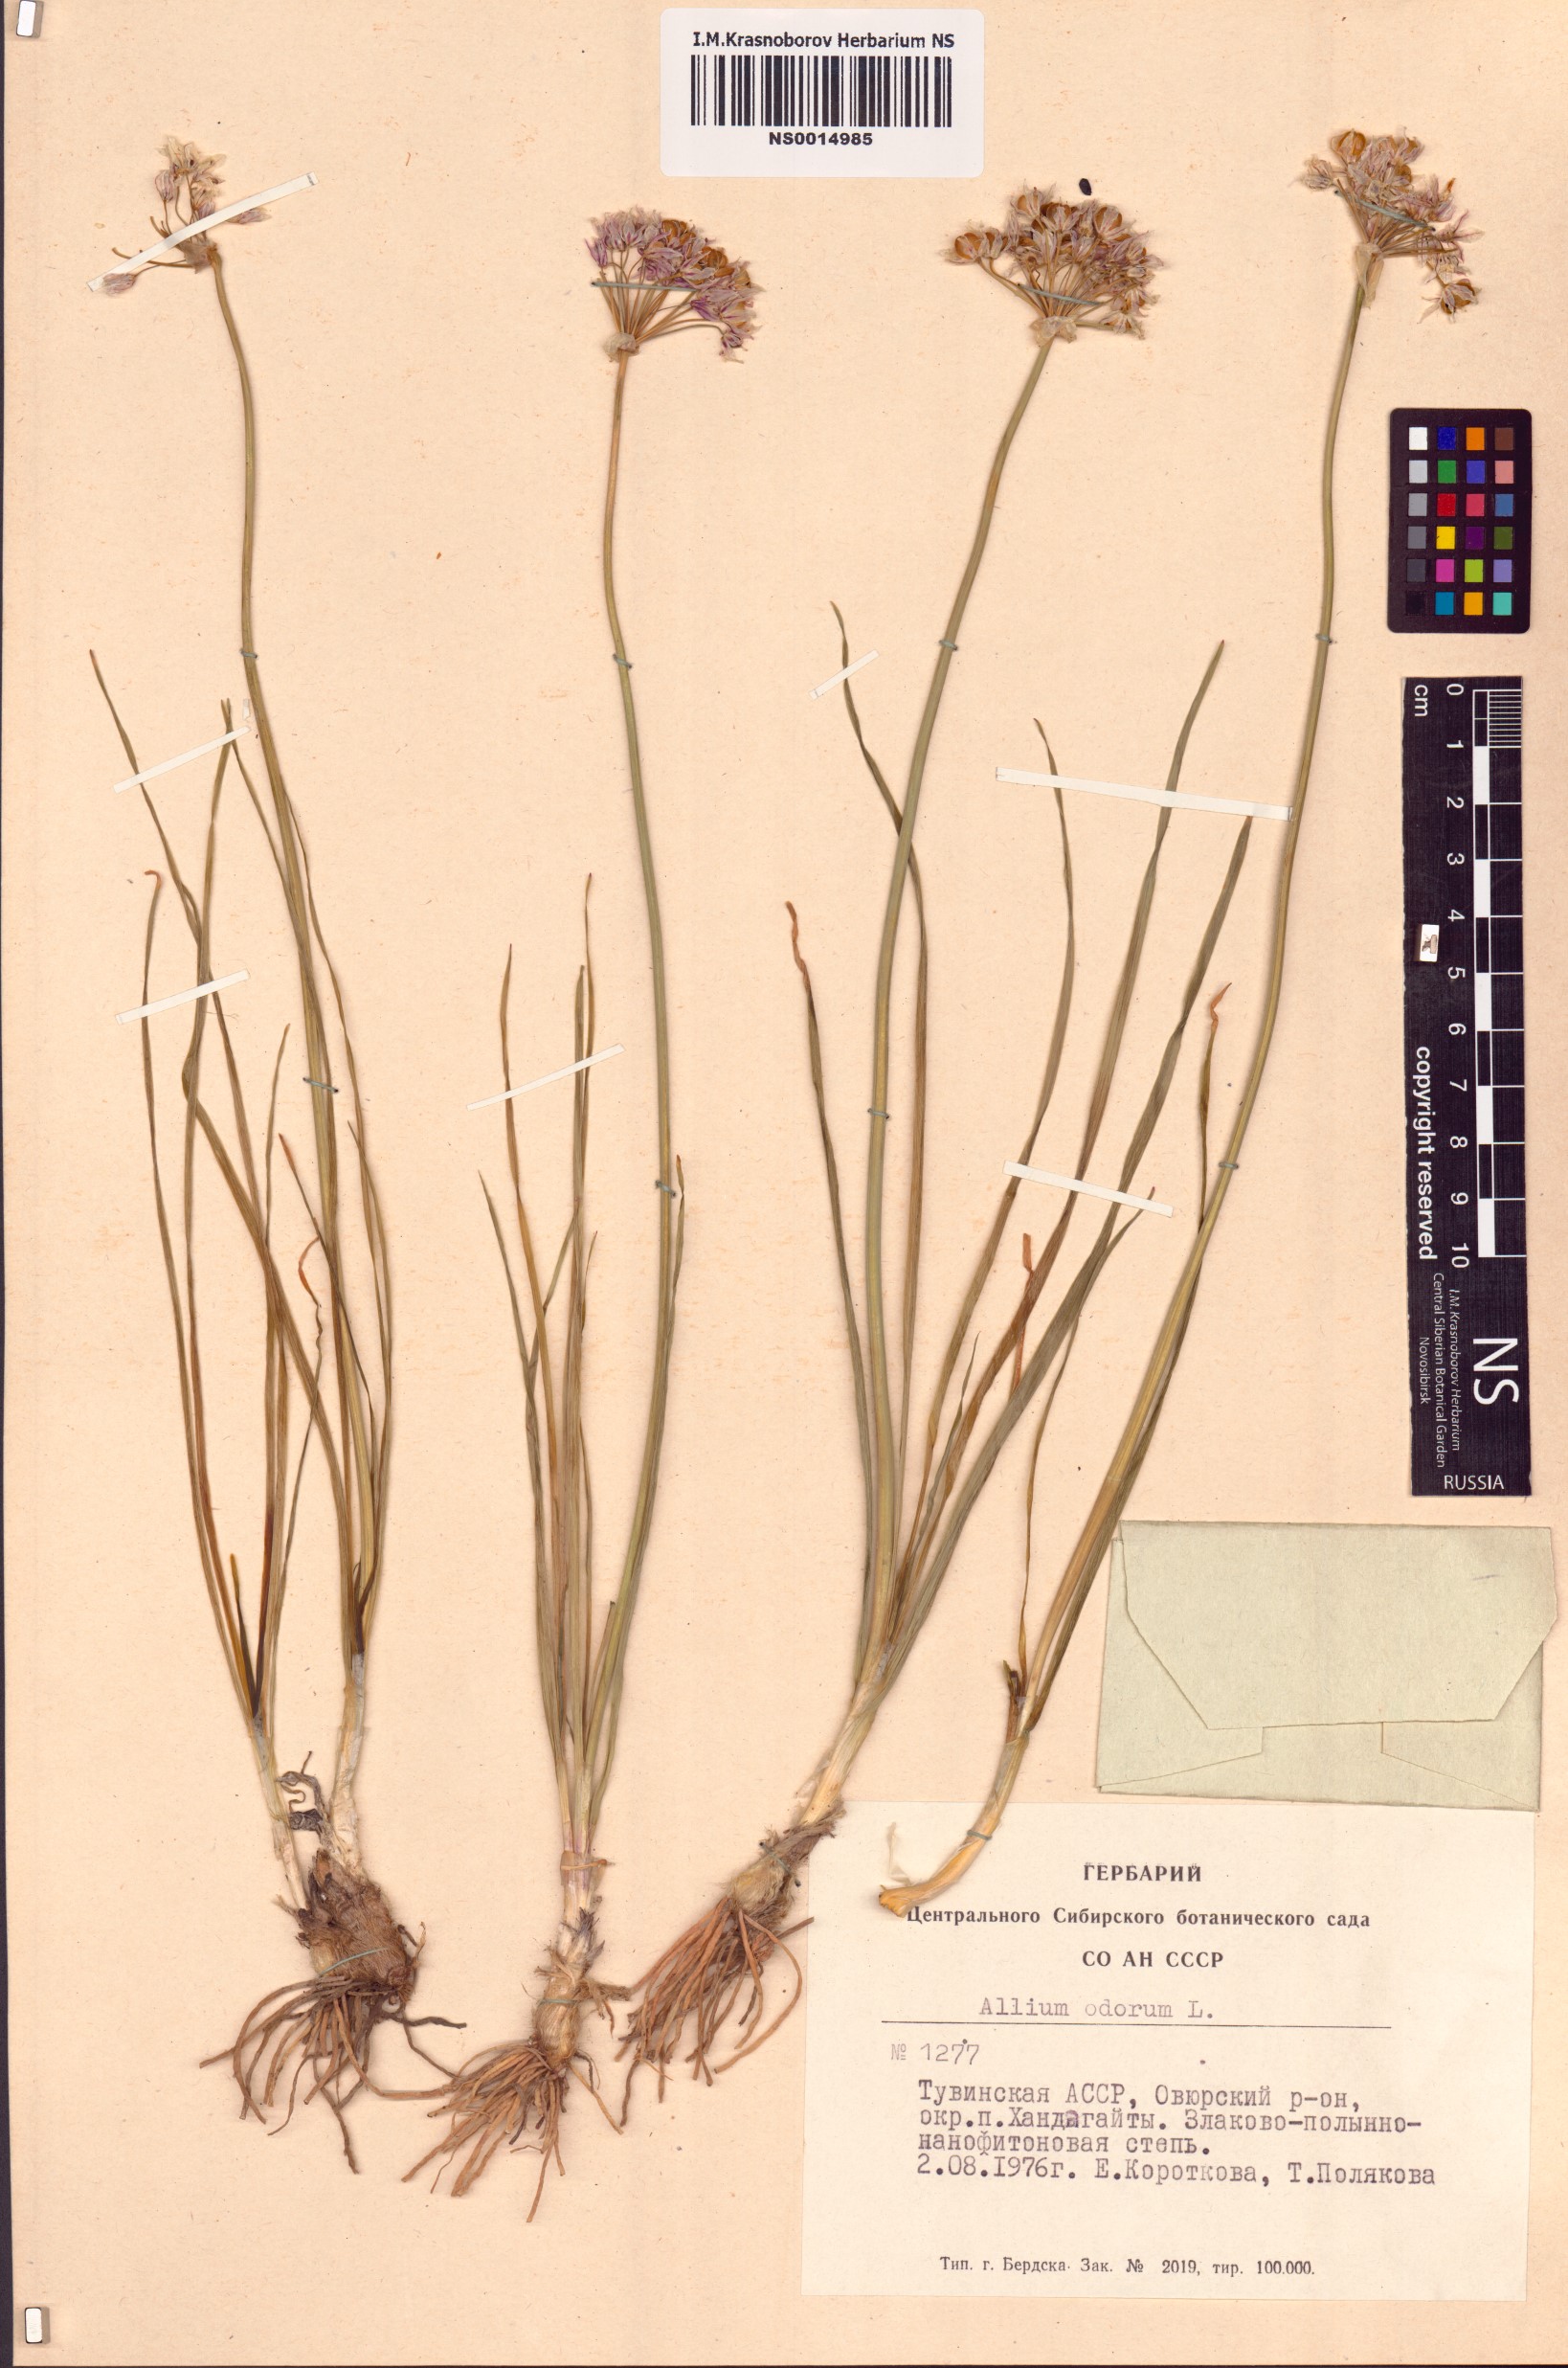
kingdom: Plantae
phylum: Tracheophyta
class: Liliopsida
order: Asparagales
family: Amaryllidaceae
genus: Allium
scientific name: Allium ramosum
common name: Fragrant garlic
